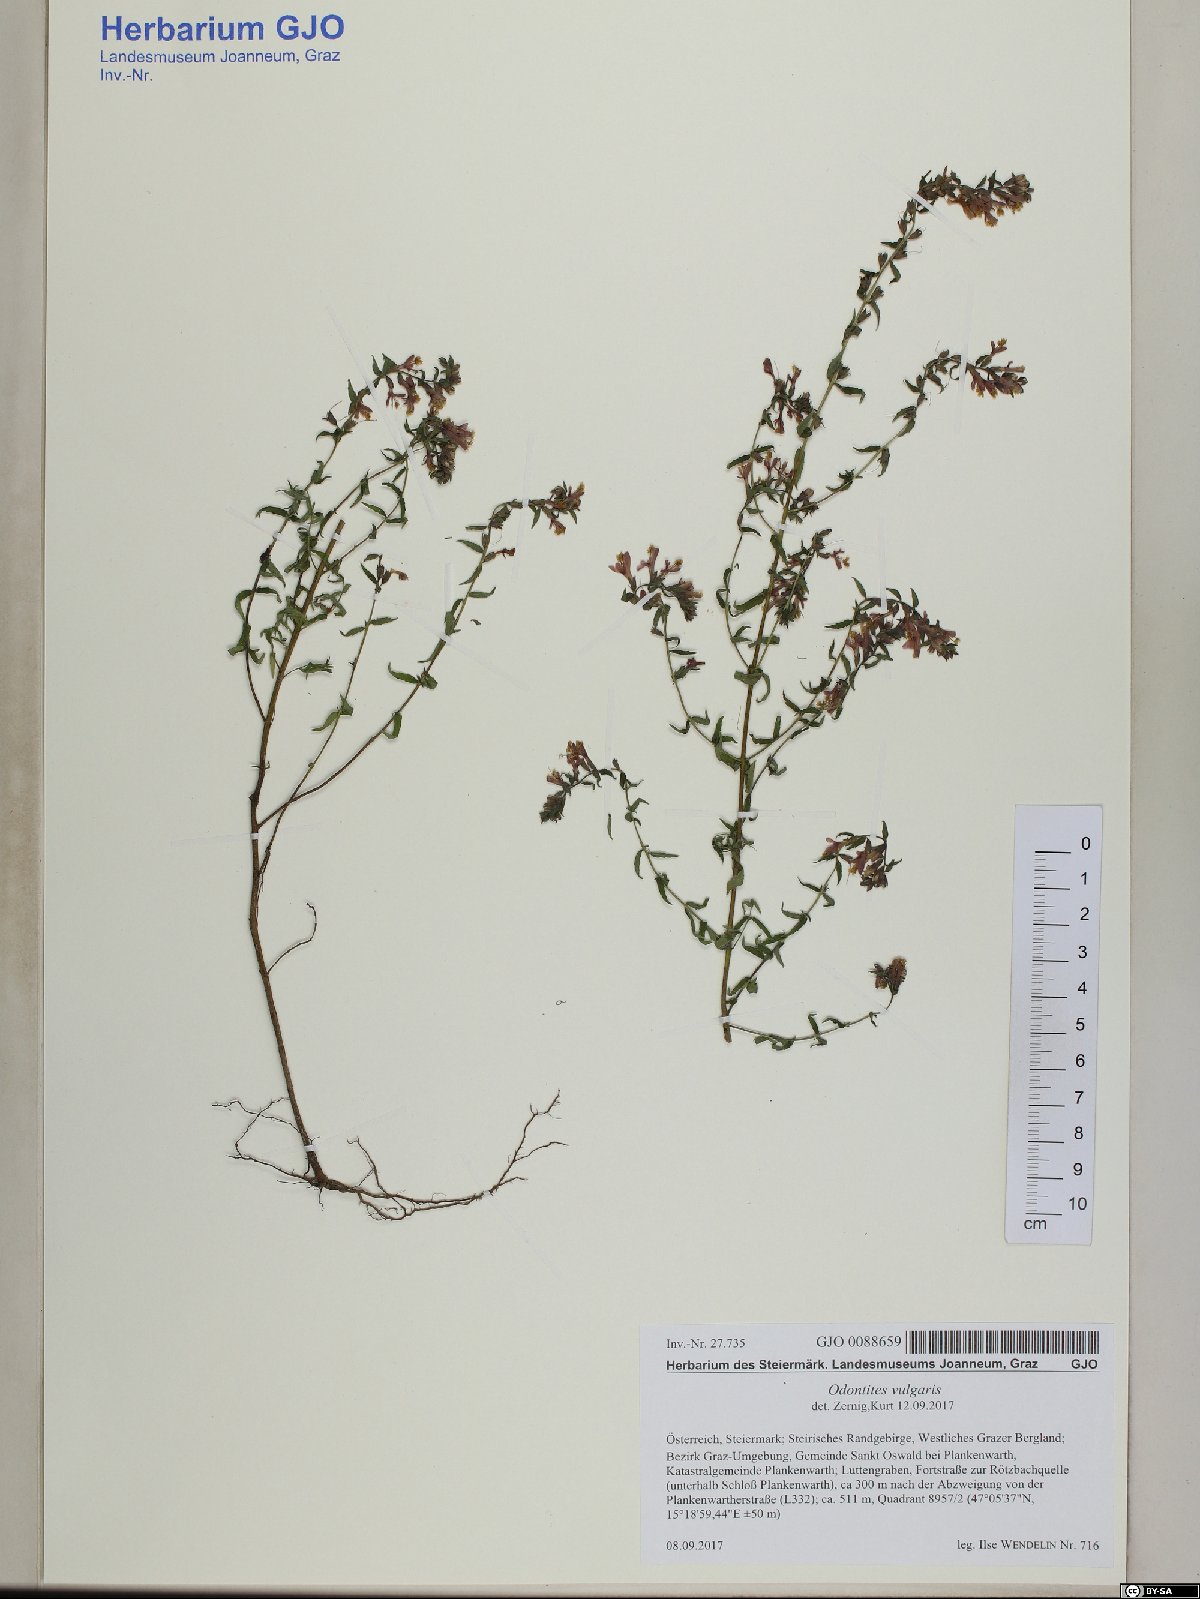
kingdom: Plantae
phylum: Tracheophyta
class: Magnoliopsida
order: Lamiales
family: Orobanchaceae
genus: Odontites
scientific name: Odontites vulgaris
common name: Broomrape
